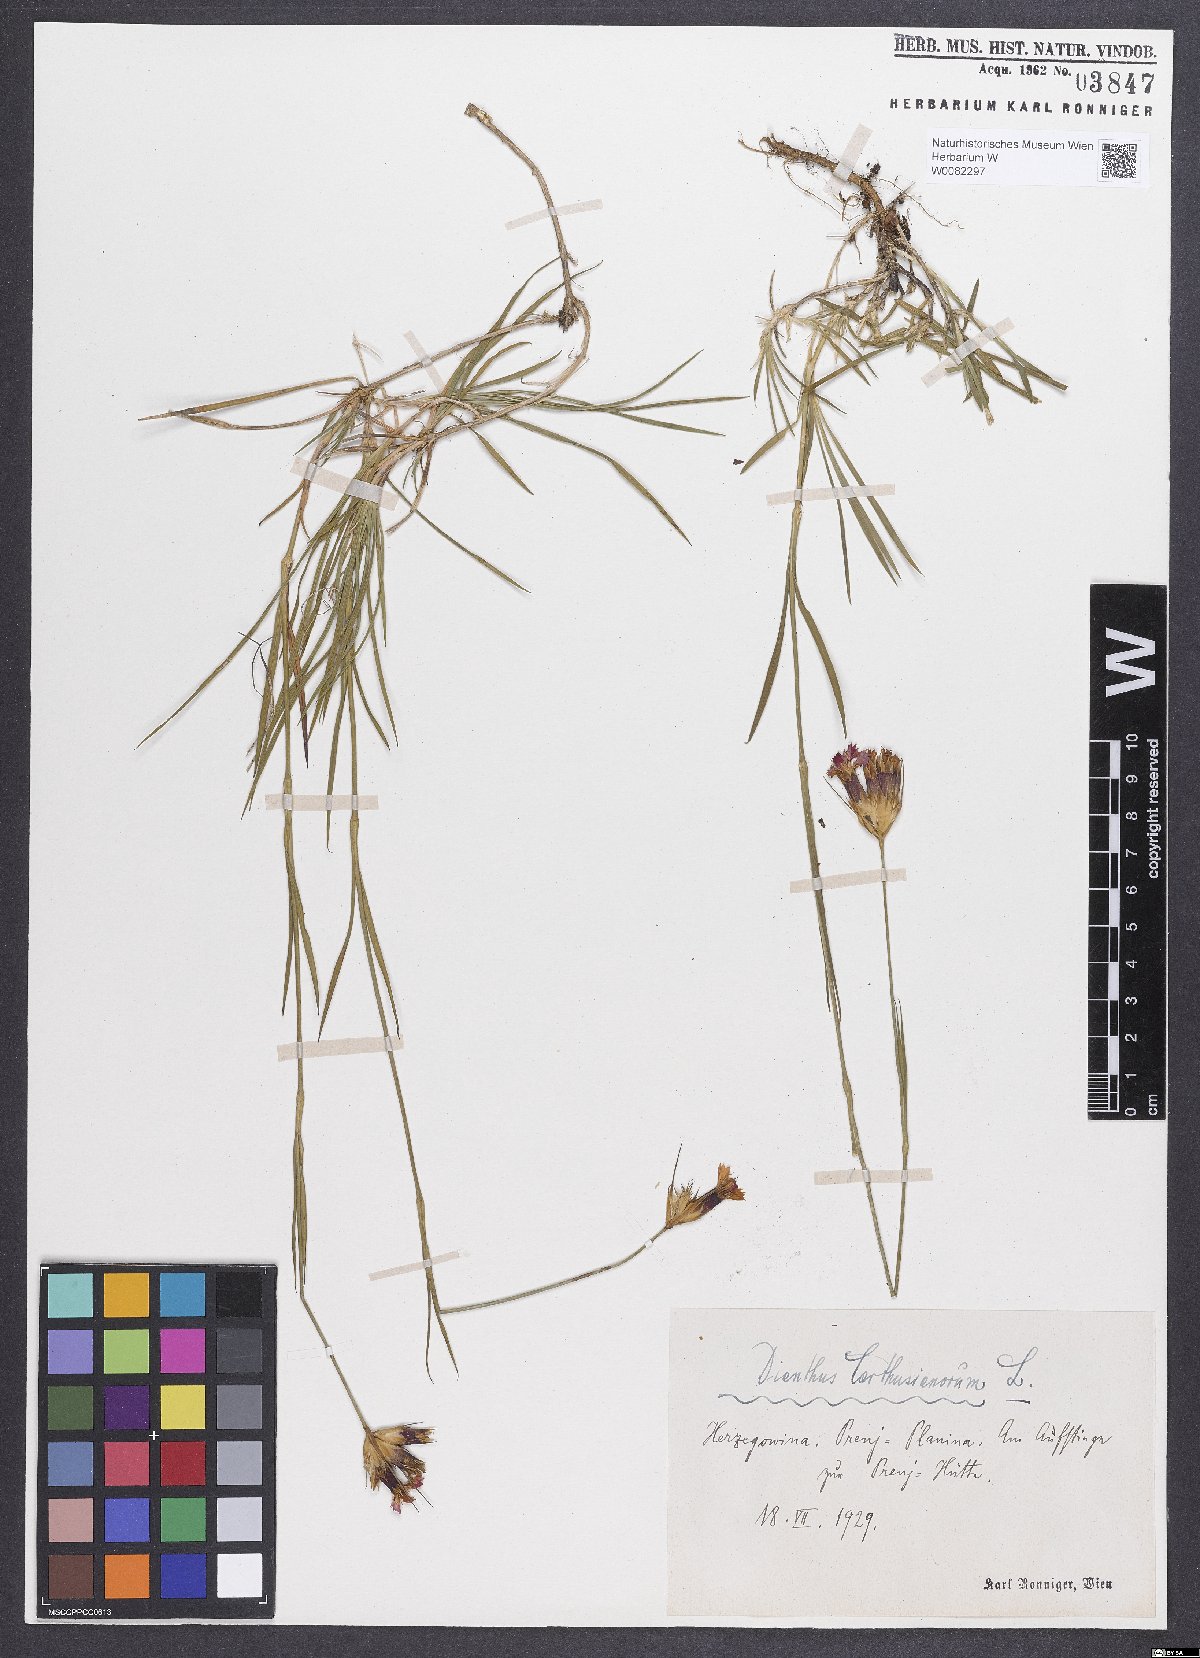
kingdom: Plantae
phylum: Tracheophyta
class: Magnoliopsida
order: Caryophyllales
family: Caryophyllaceae
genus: Dianthus
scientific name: Dianthus carthusianorum
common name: Carthusian pink
